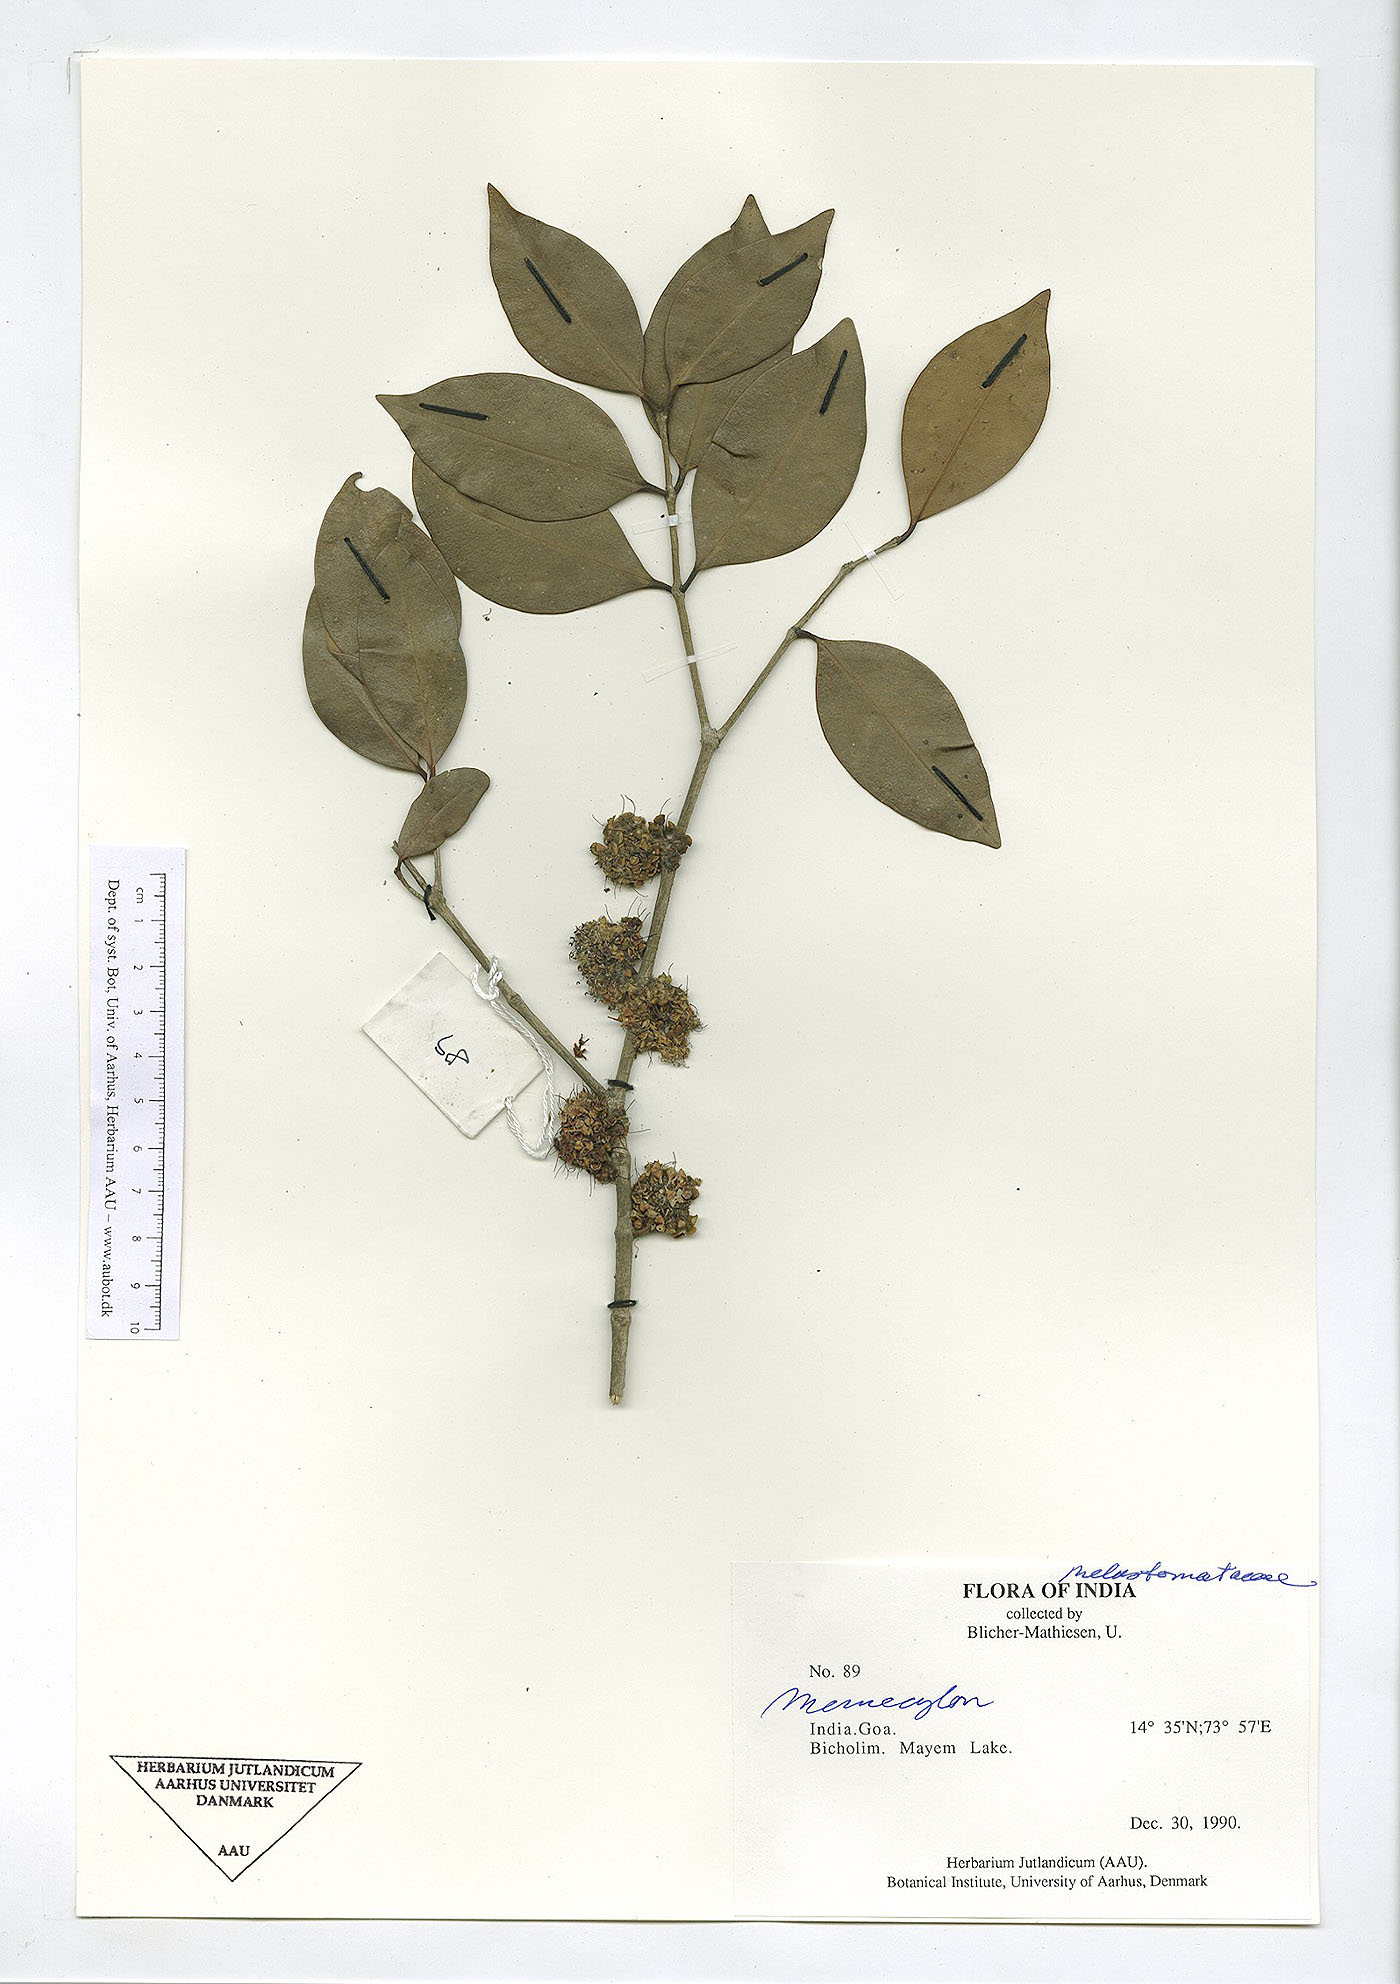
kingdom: Plantae
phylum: Tracheophyta
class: Magnoliopsida
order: Myrtales
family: Melastomataceae
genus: Memecylon
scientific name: Memecylon
